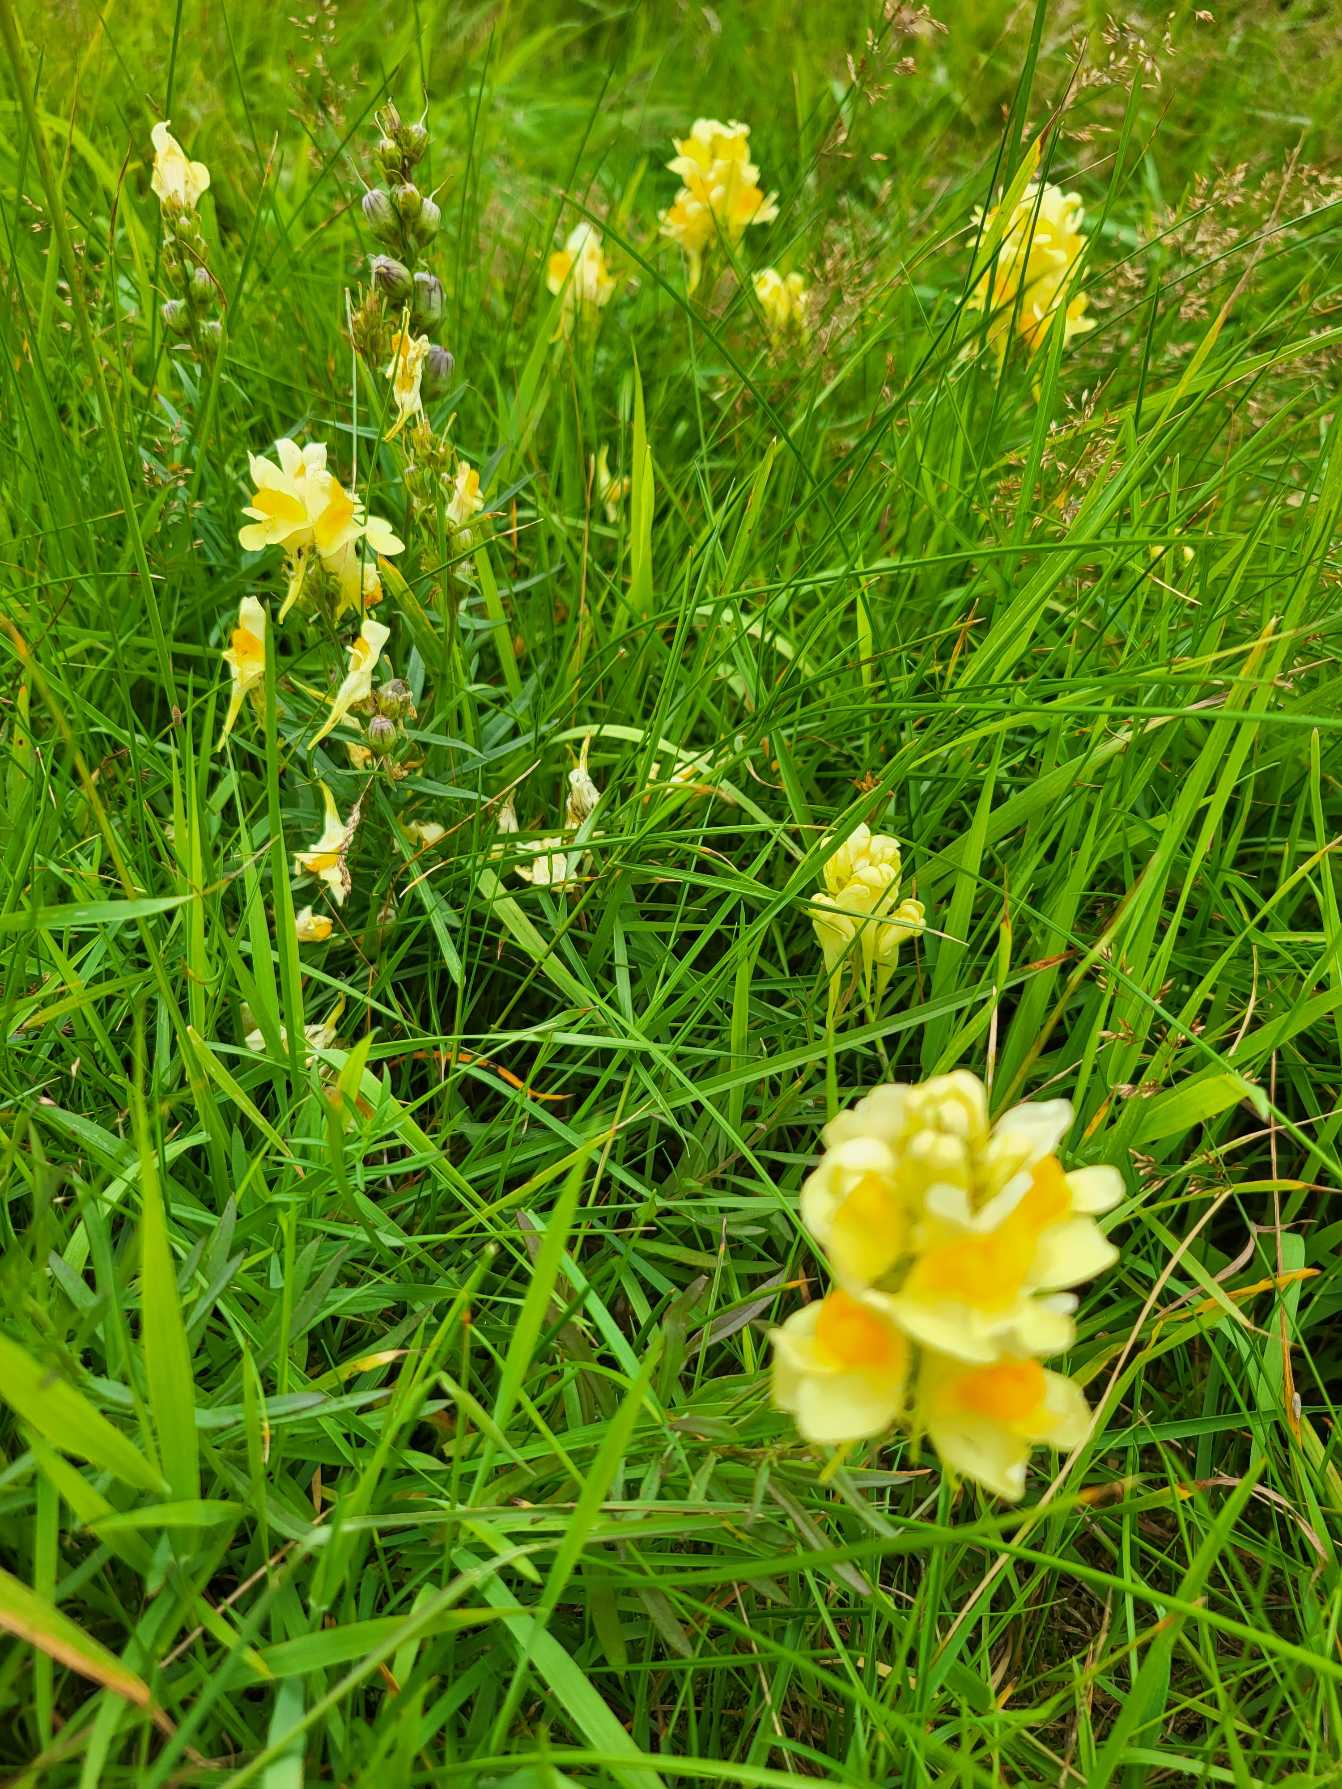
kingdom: Plantae
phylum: Tracheophyta
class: Magnoliopsida
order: Lamiales
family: Plantaginaceae
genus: Linaria
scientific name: Linaria vulgaris
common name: Almindelig torskemund
